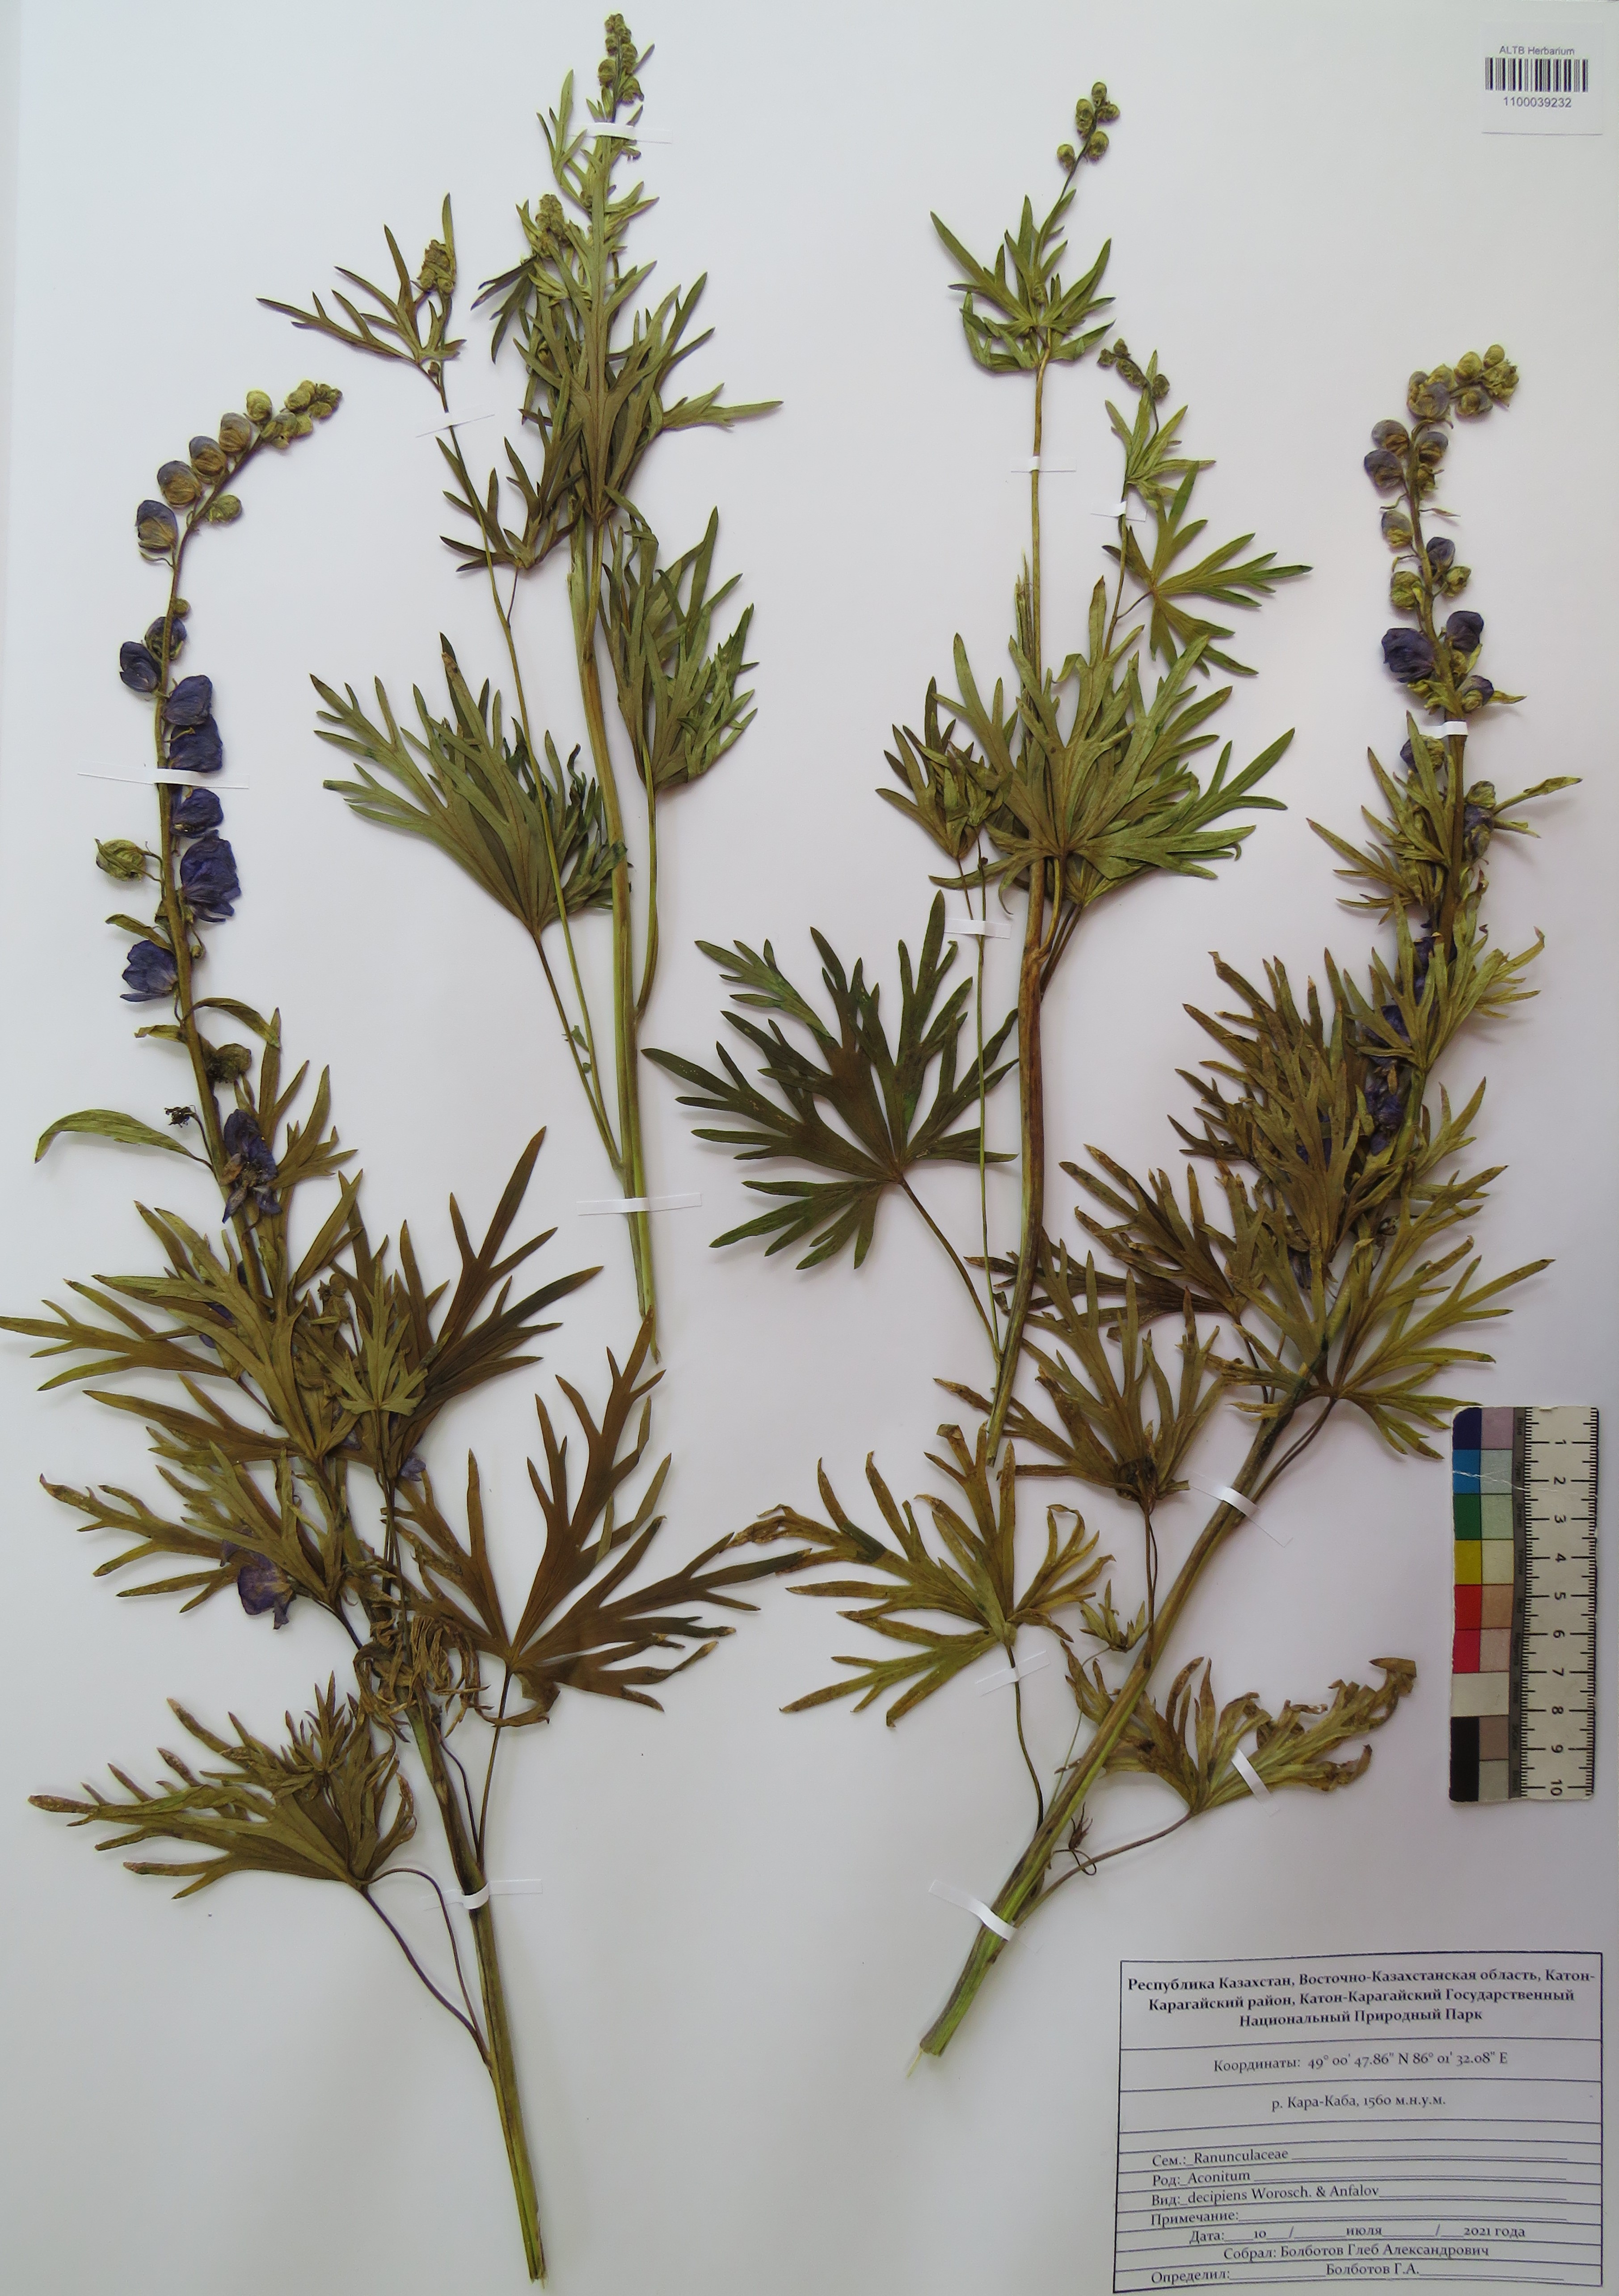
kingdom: Plantae
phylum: Tracheophyta
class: Magnoliopsida
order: Ranunculales
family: Ranunculaceae
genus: Aconitum
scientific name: Aconitum glandulosum
